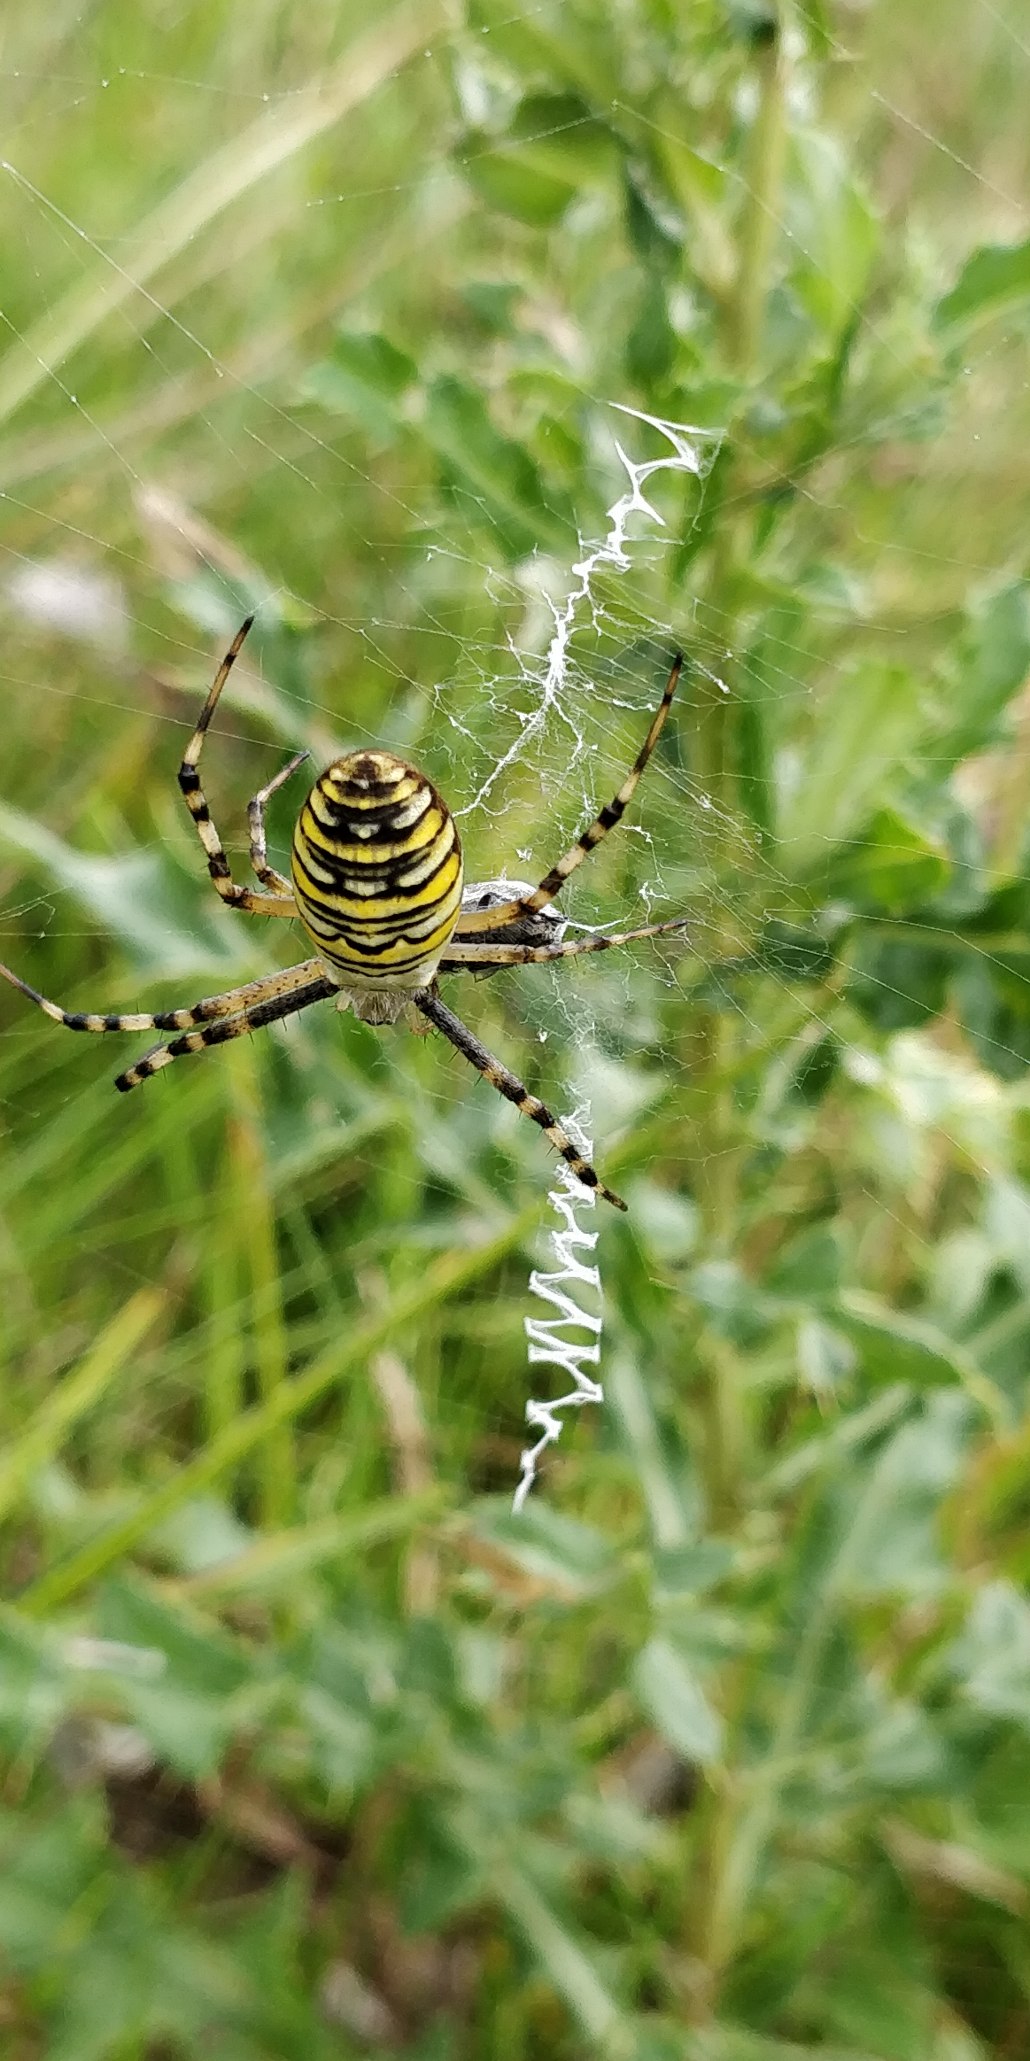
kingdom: Animalia
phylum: Arthropoda
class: Arachnida
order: Araneae
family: Araneidae
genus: Argiope
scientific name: Argiope bruennichi
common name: Hvepseedderkop
